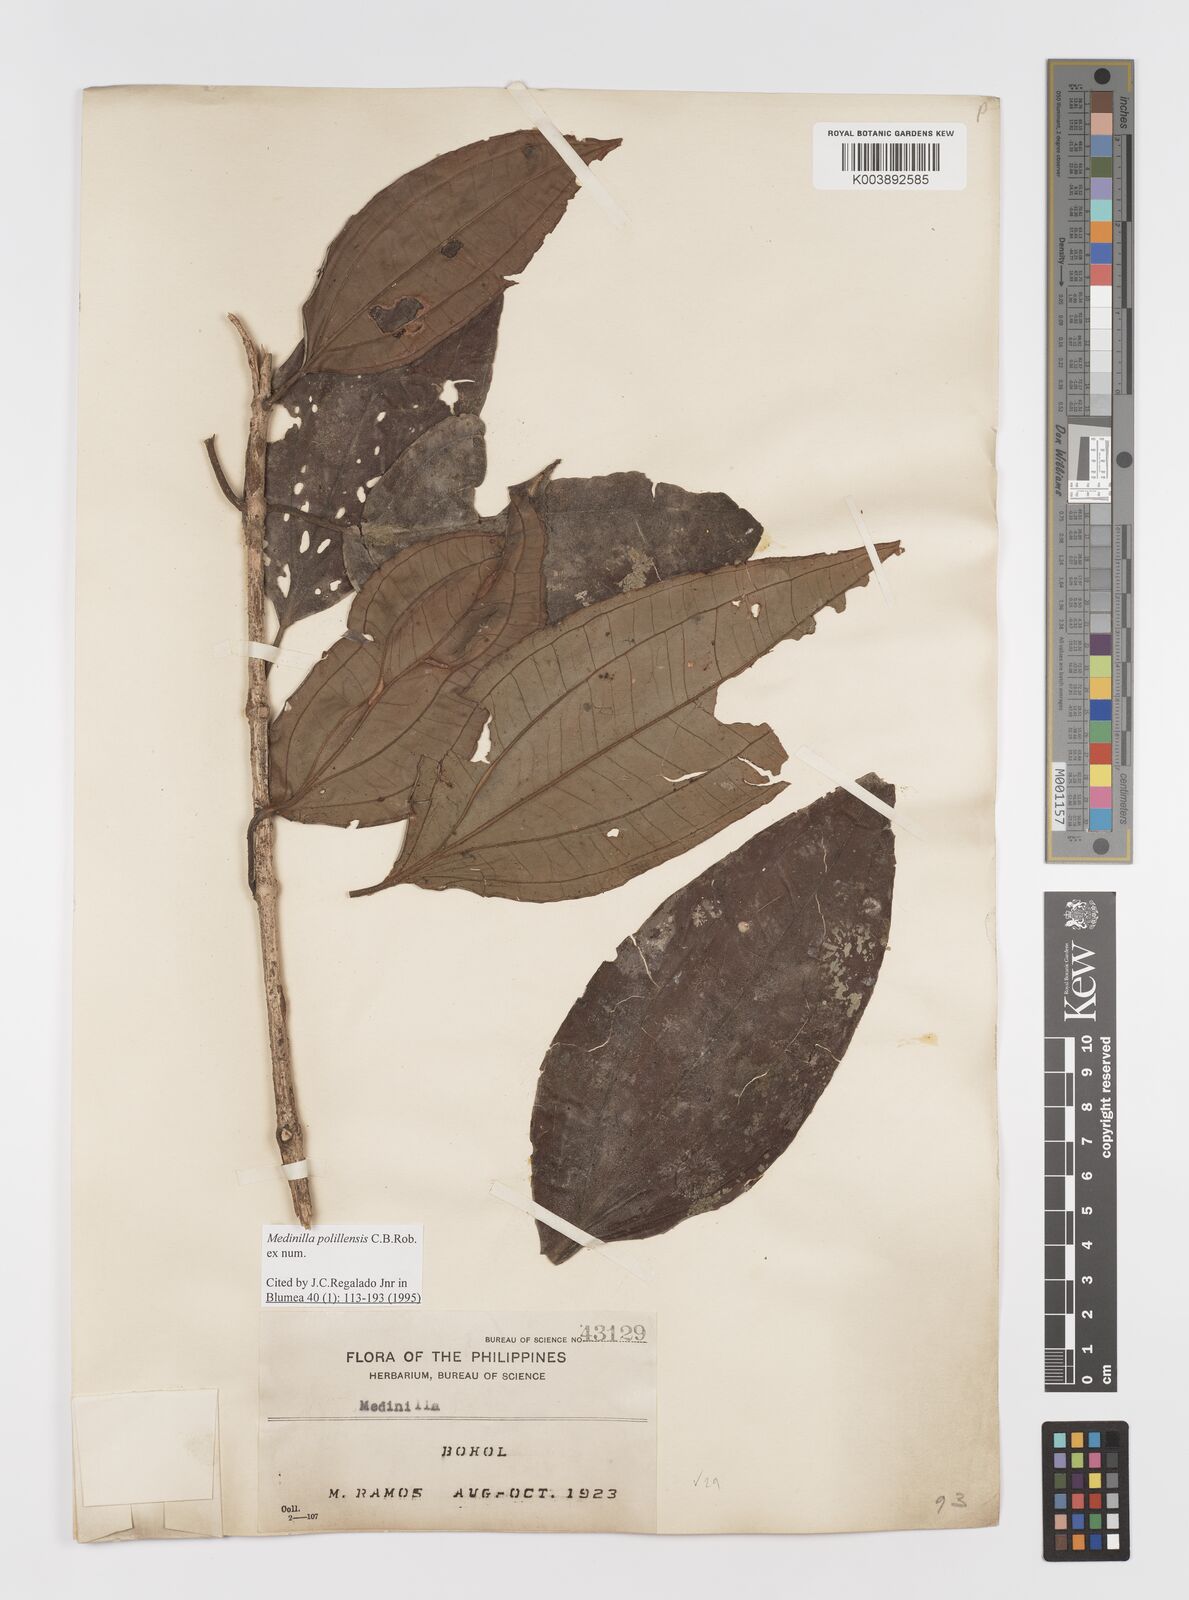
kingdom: Plantae
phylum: Tracheophyta
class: Magnoliopsida
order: Myrtales
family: Melastomataceae
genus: Medinilla
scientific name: Medinilla polillensis
